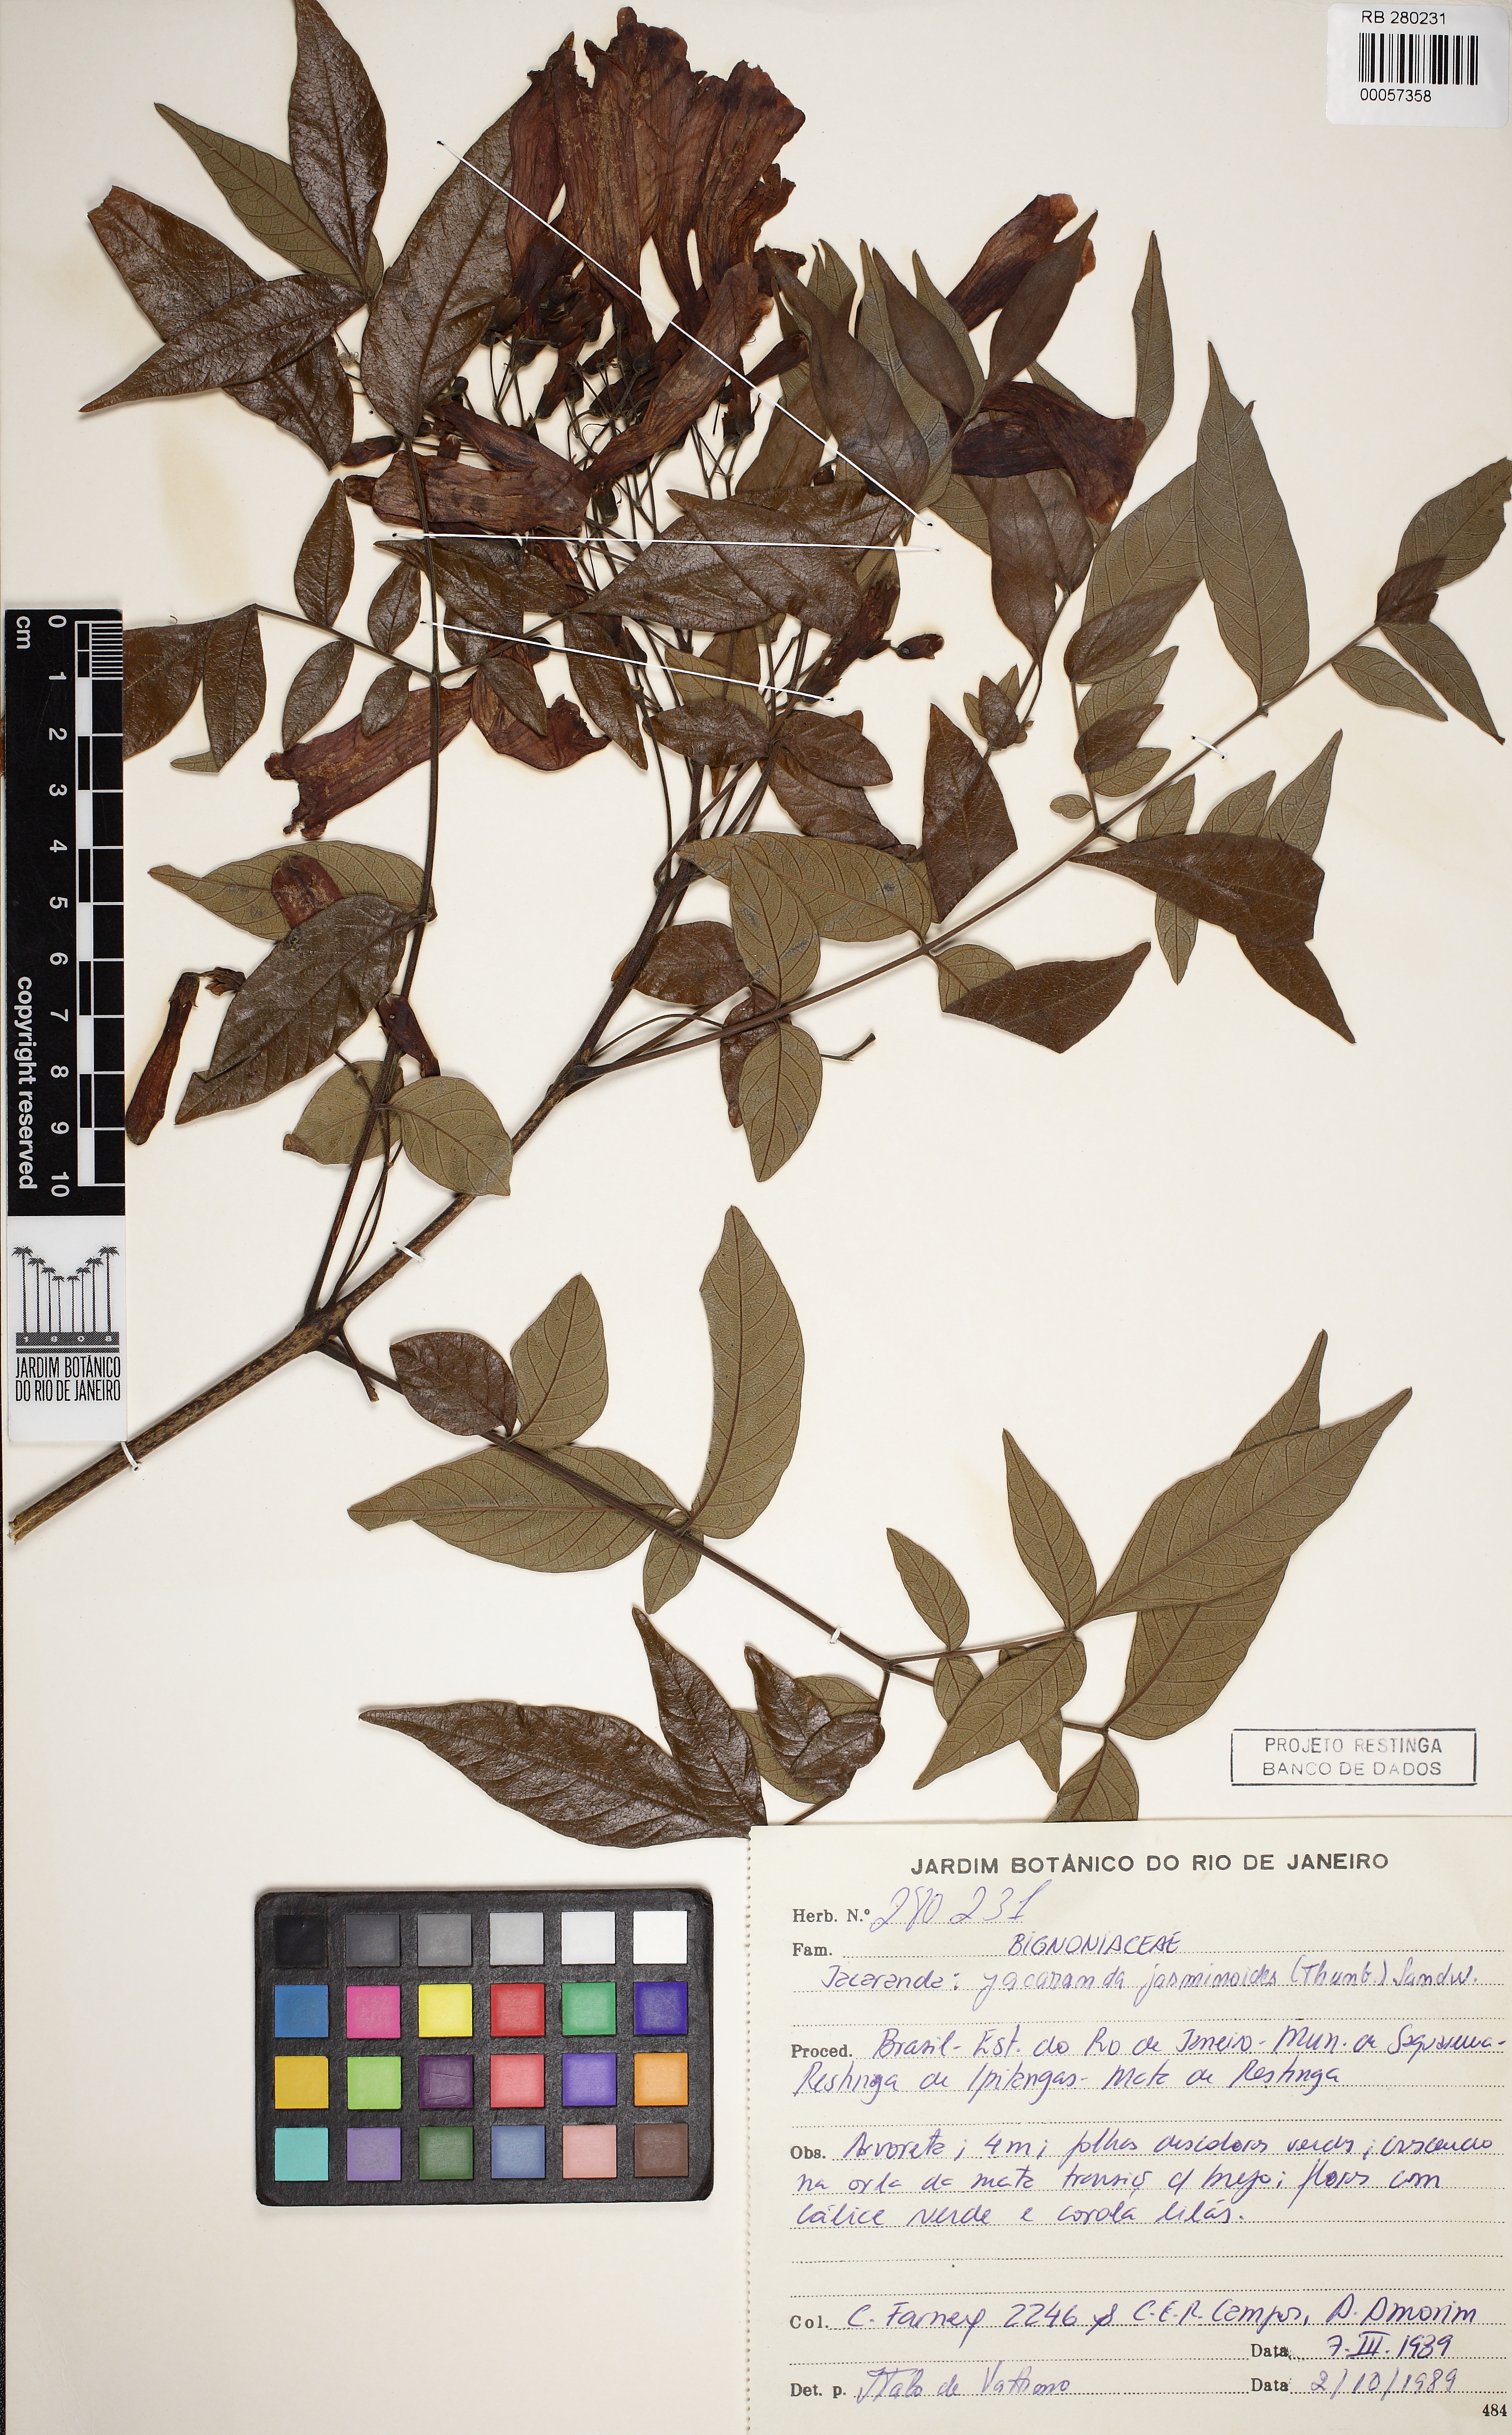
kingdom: Plantae
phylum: Tracheophyta
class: Magnoliopsida
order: Lamiales
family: Bignoniaceae
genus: Jacaranda
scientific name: Jacaranda jasminoides
